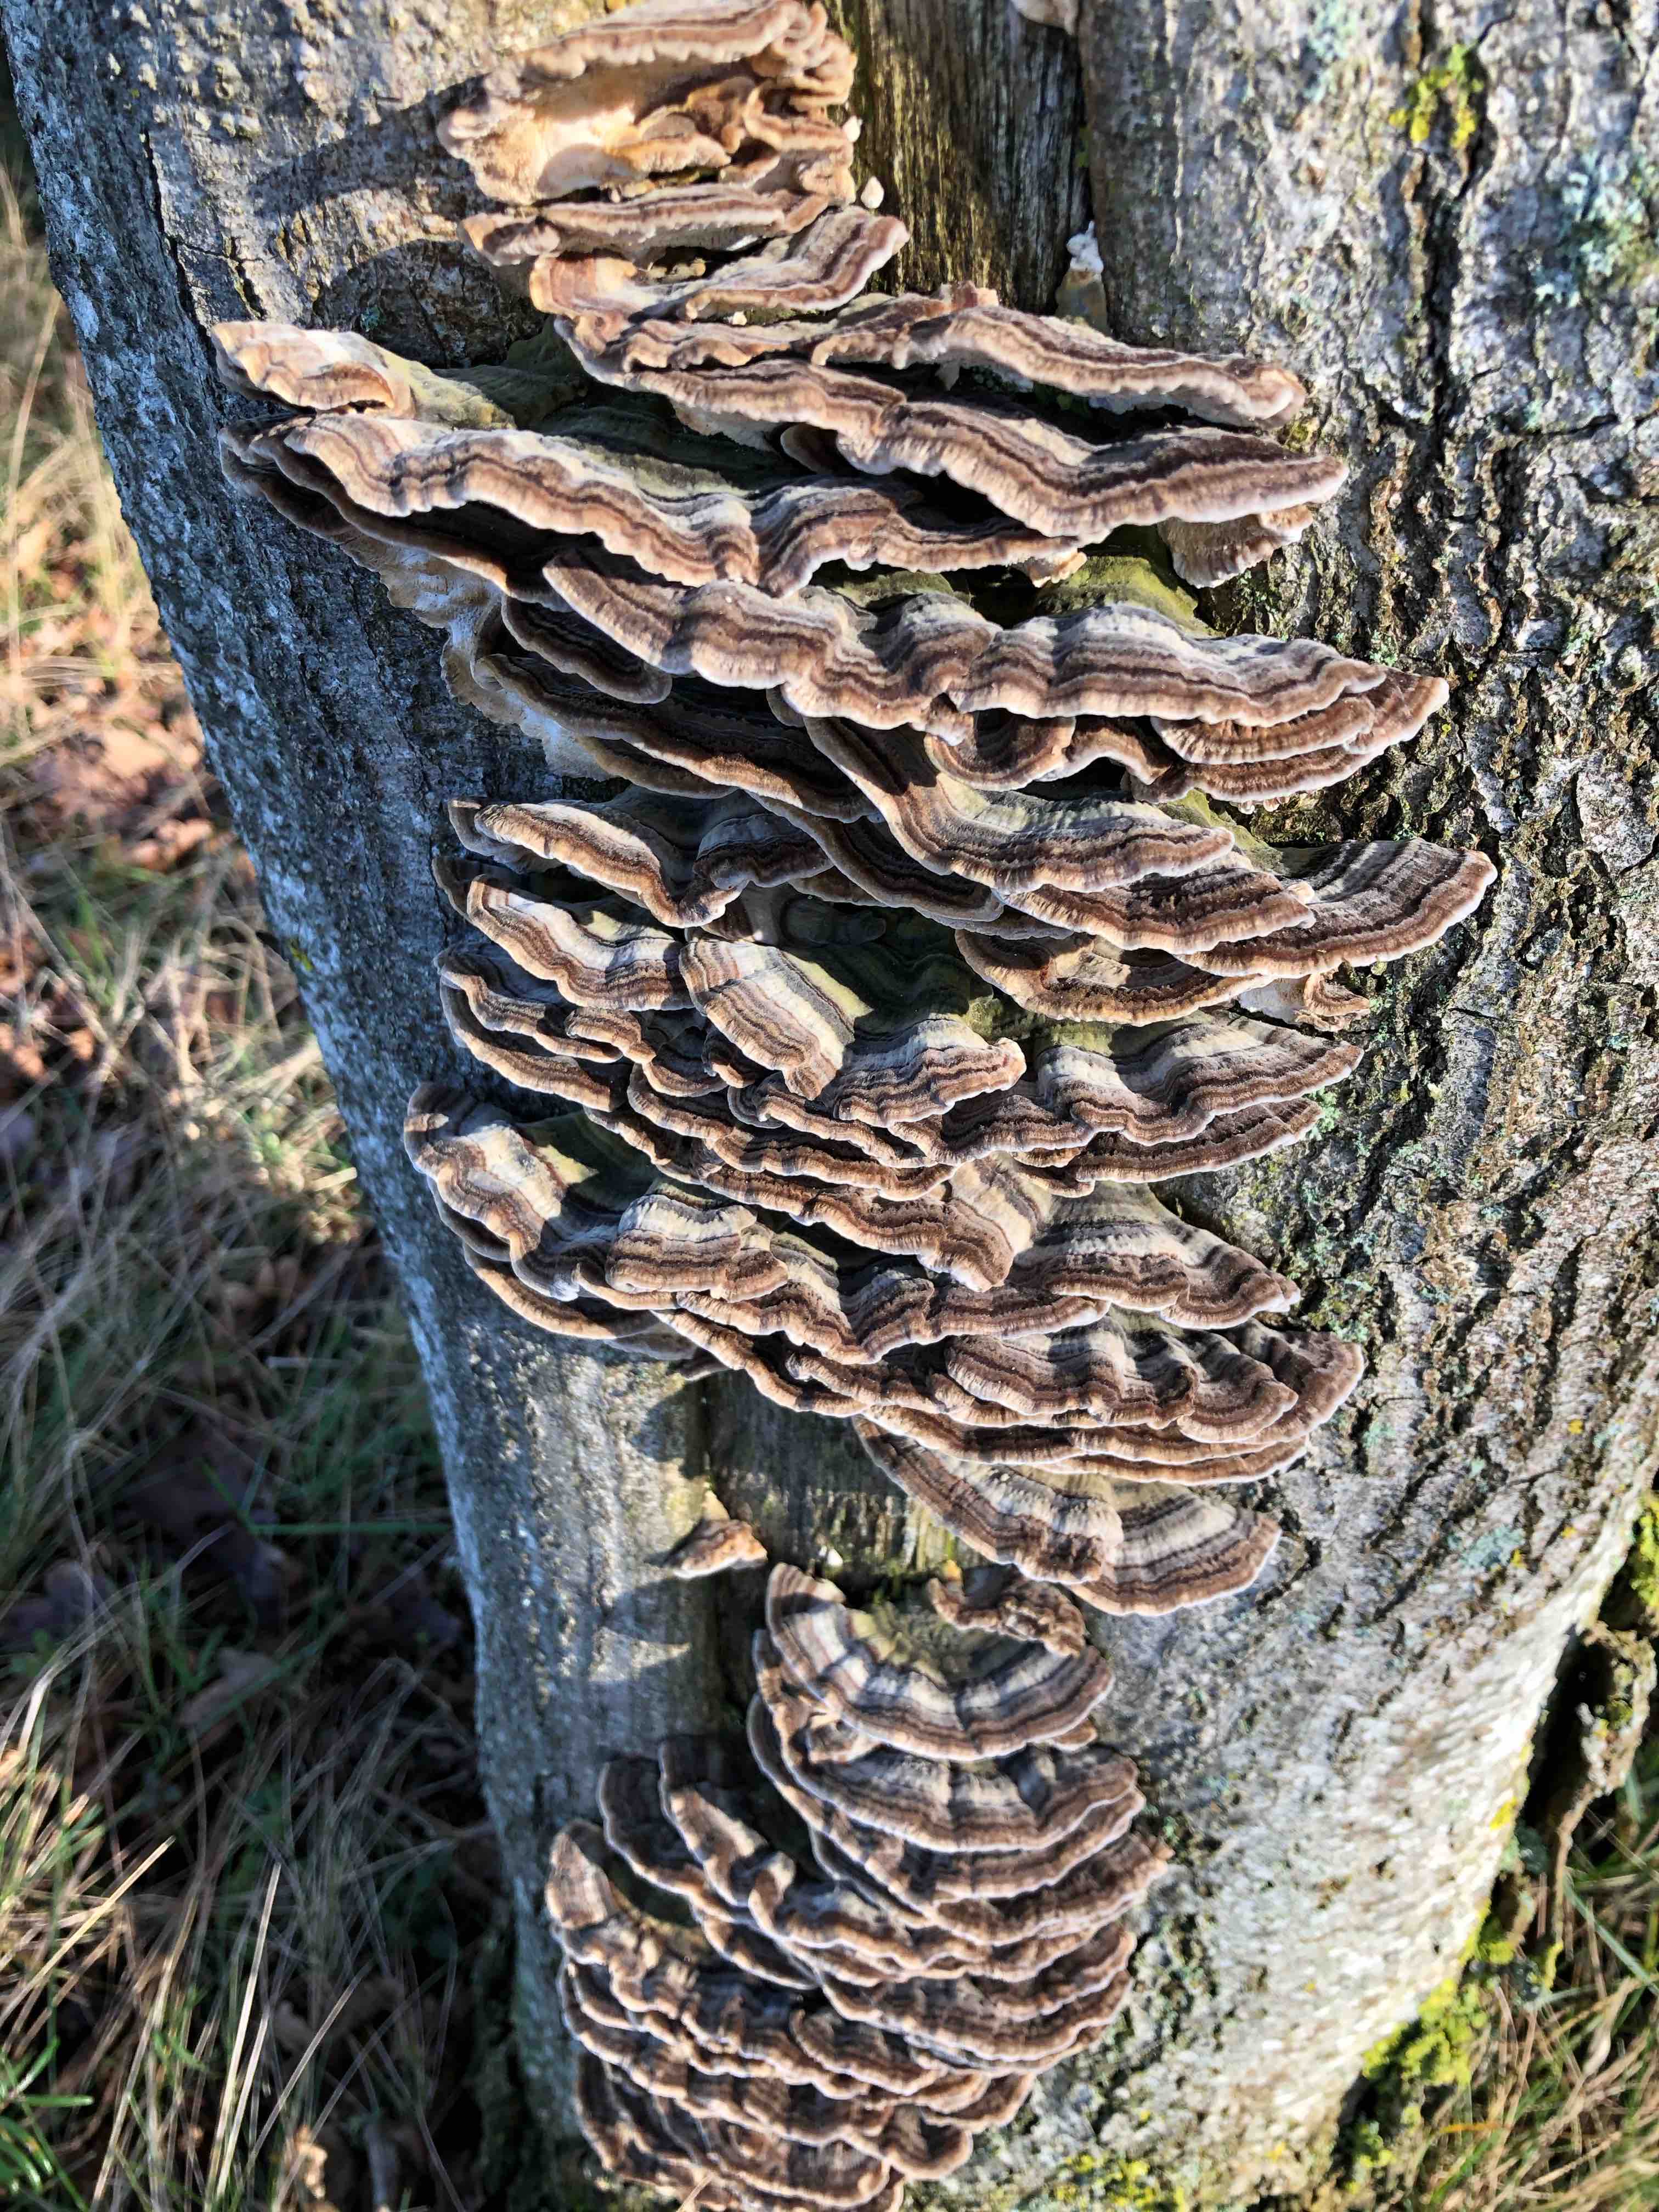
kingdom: Fungi
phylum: Basidiomycota
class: Agaricomycetes
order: Polyporales
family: Polyporaceae
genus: Trametes
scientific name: Trametes versicolor
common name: broget læderporesvamp
